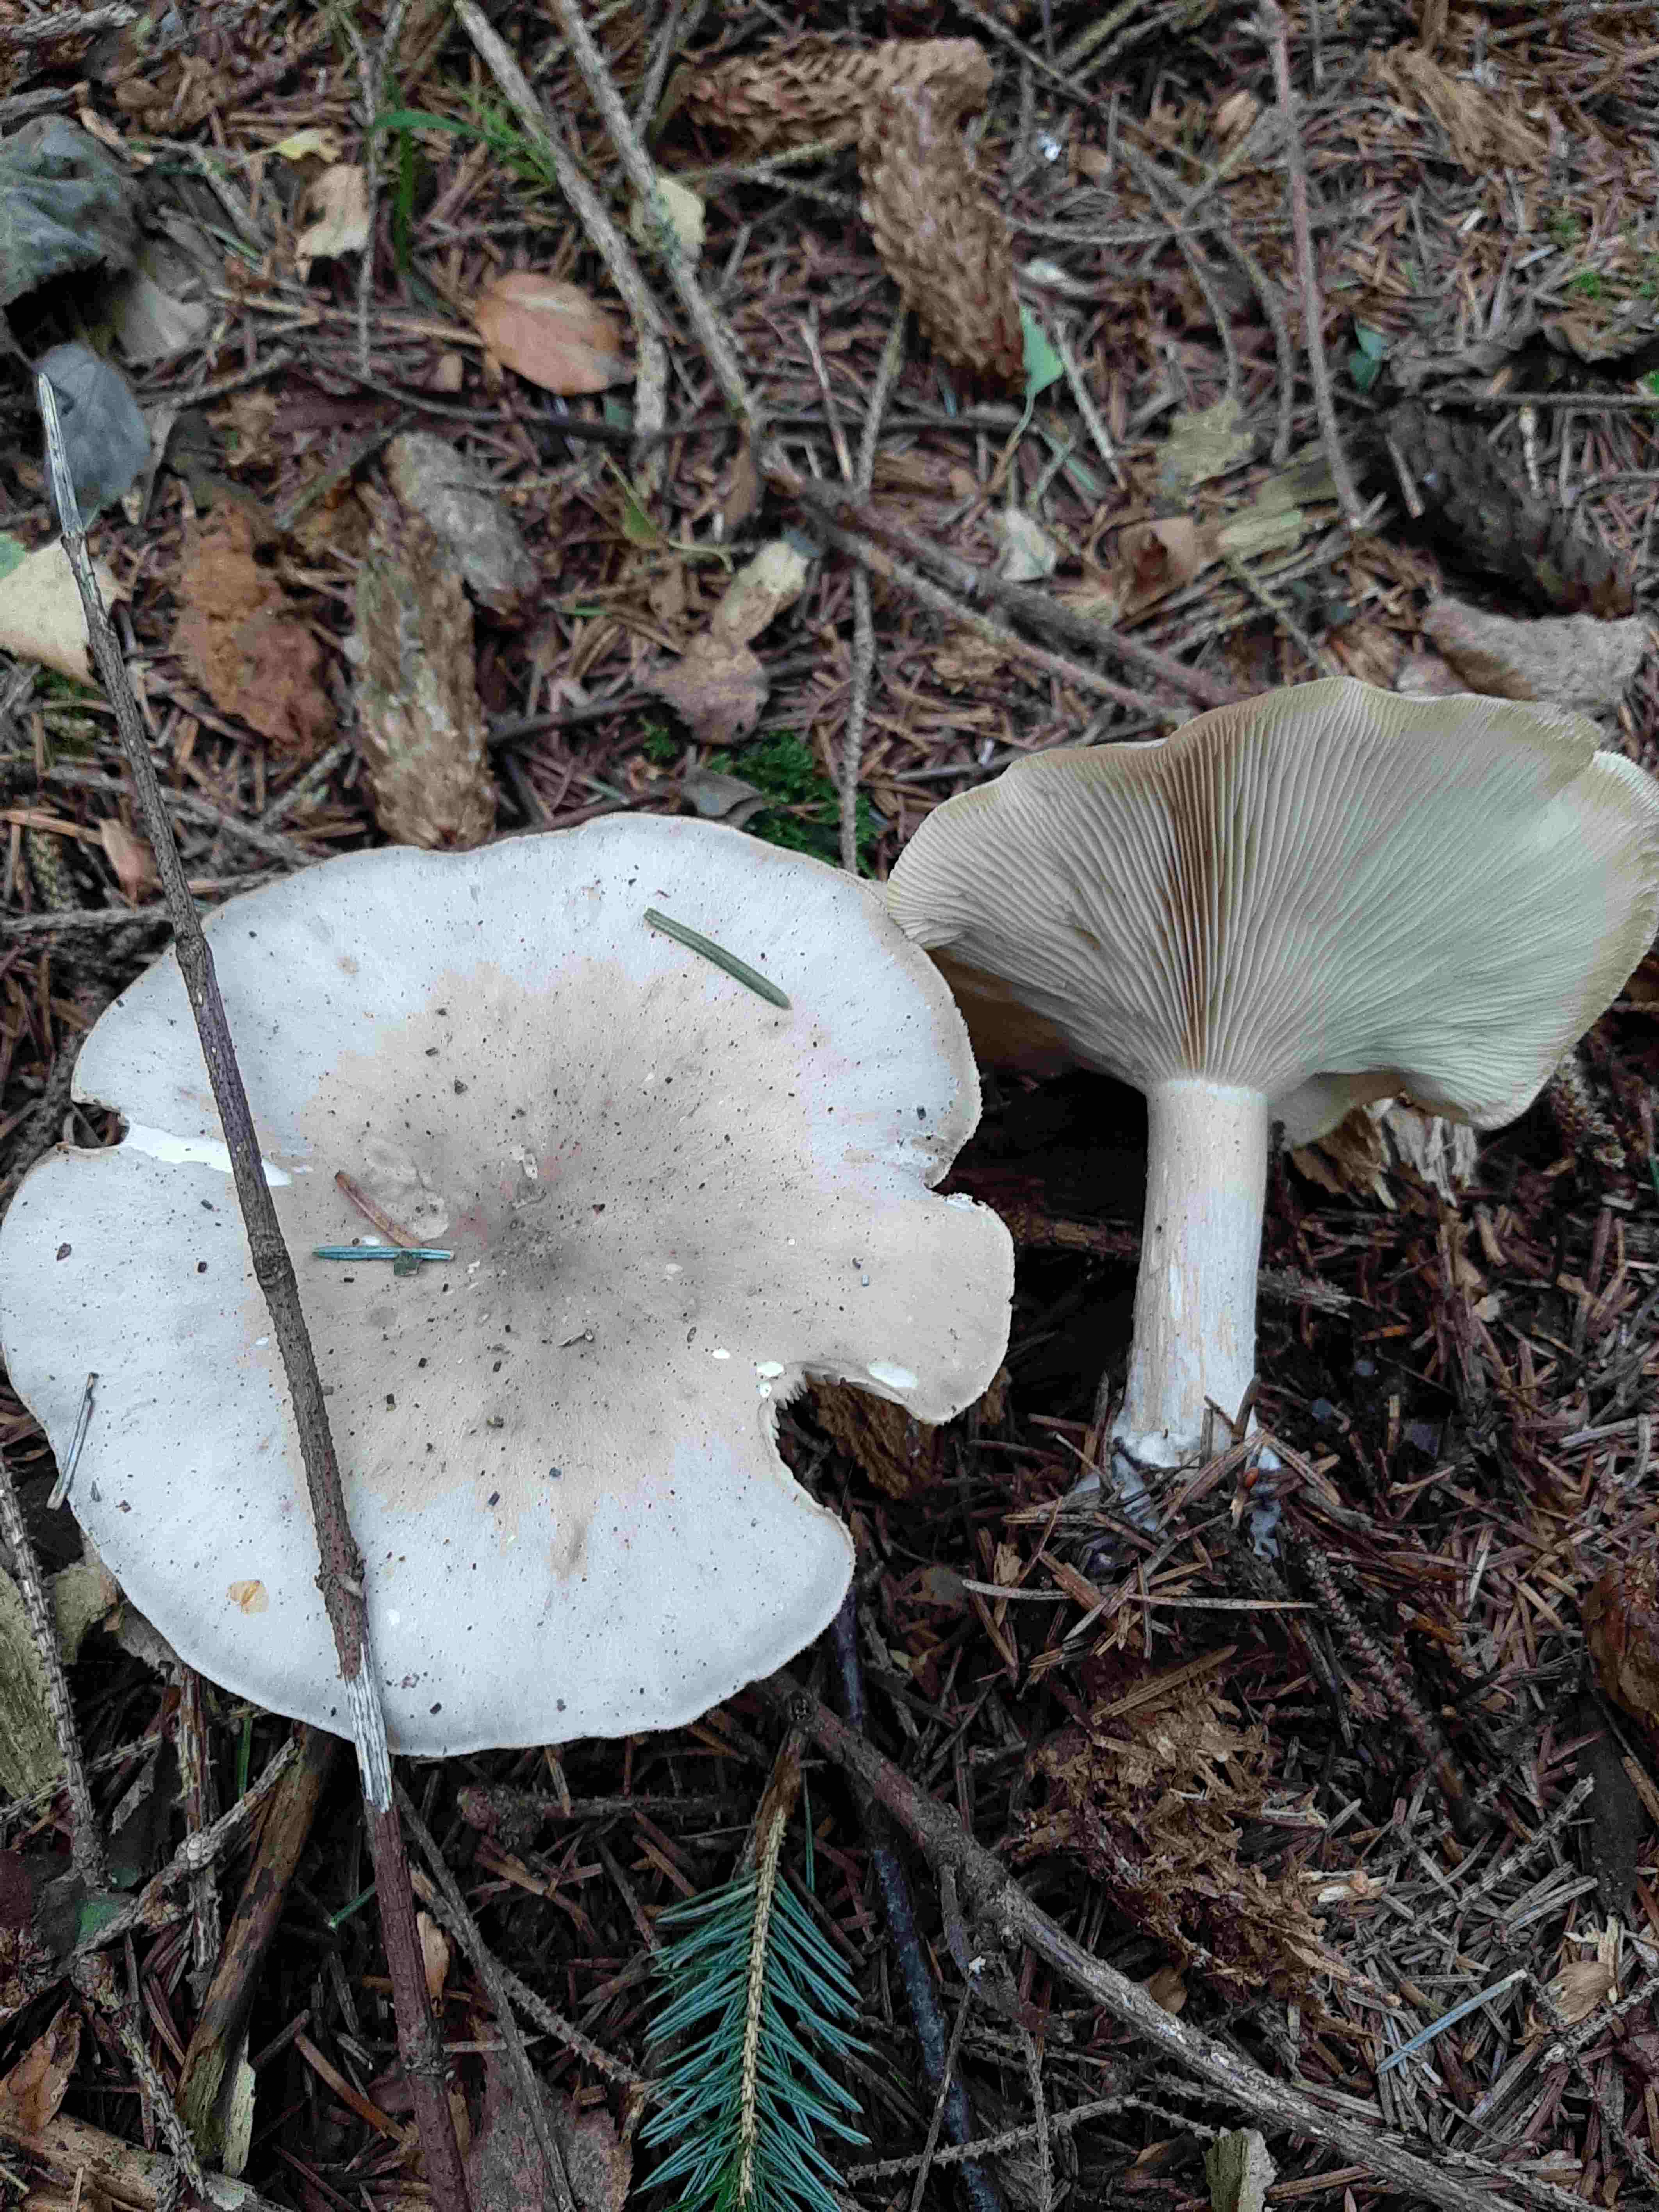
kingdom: Fungi
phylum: Basidiomycota
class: Agaricomycetes
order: Agaricales
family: Tricholomataceae
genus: Clitocybe
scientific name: Clitocybe nebularis
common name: tåge-tragthat
